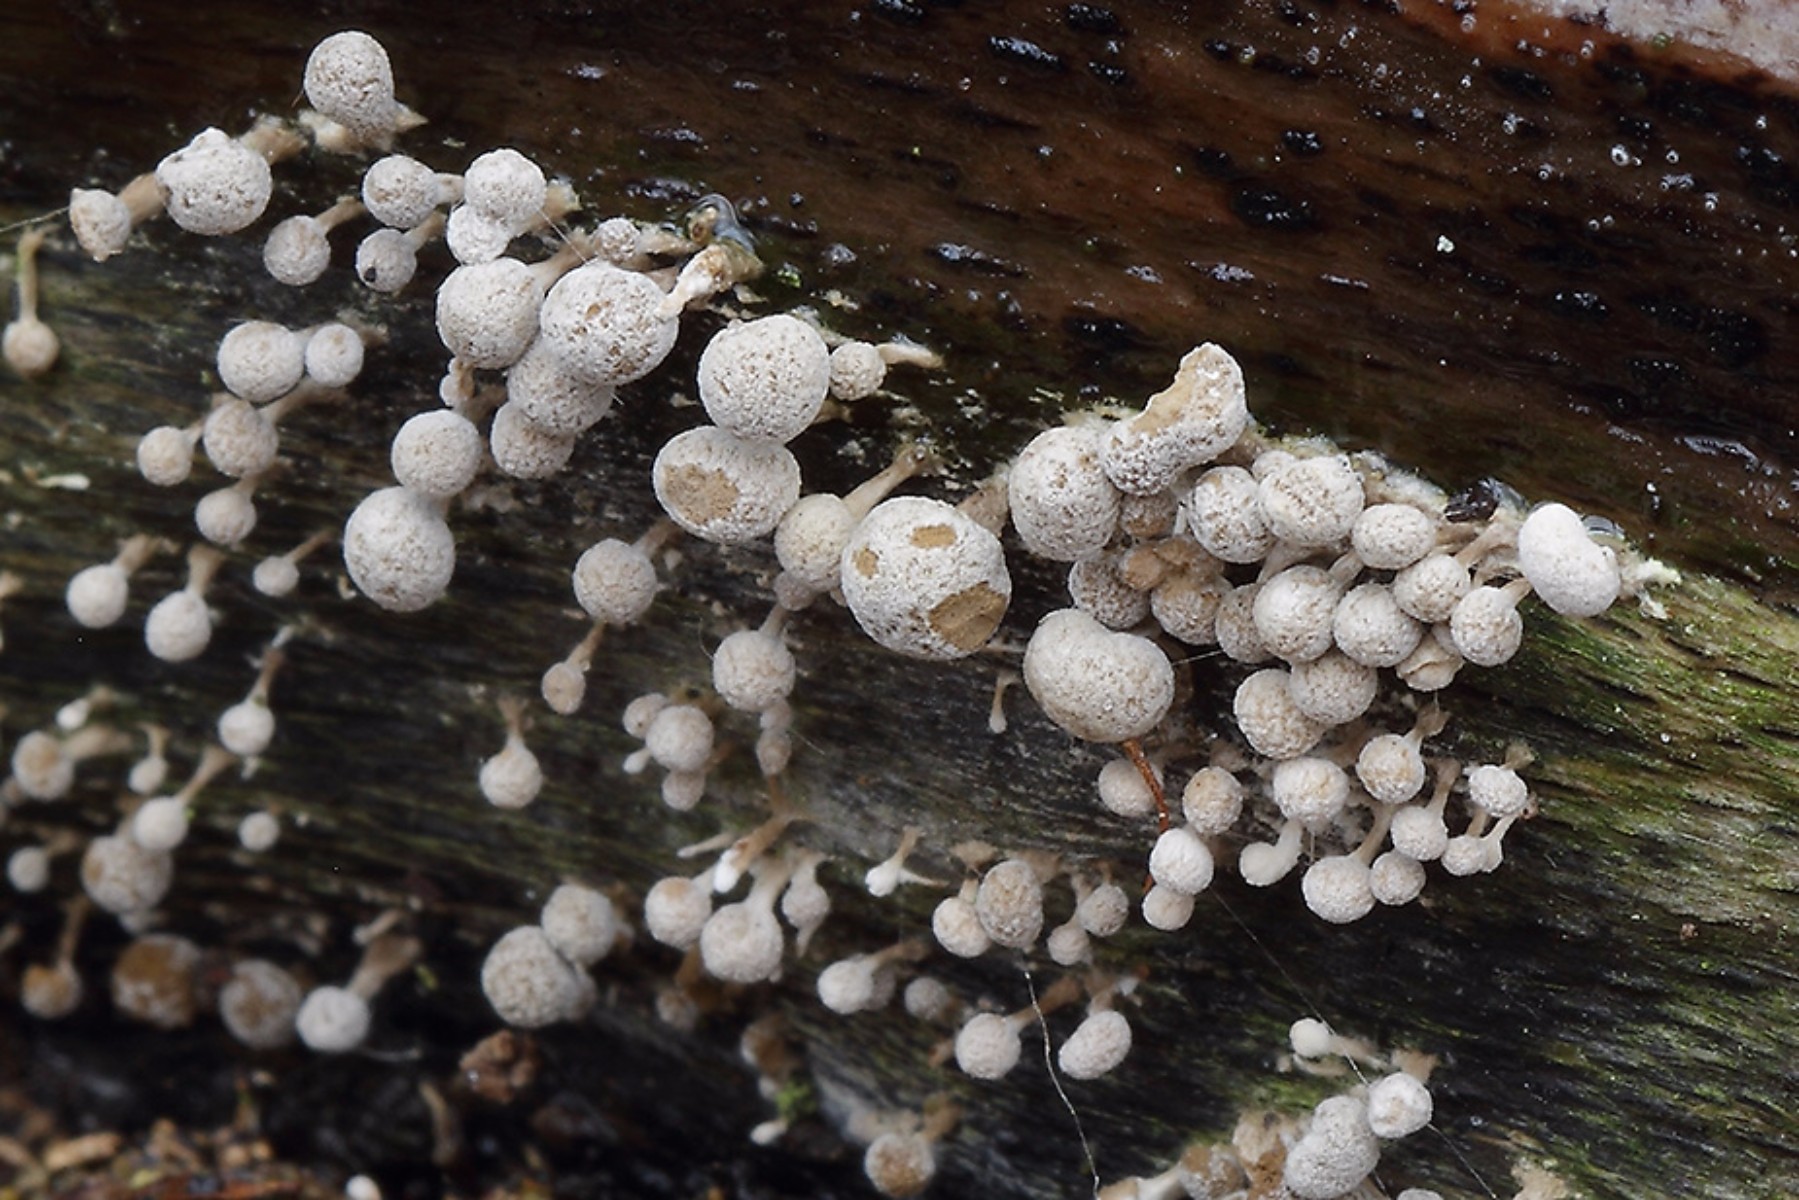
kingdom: Fungi
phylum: Basidiomycota
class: Atractiellomycetes
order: Atractiellales
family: Phleogenaceae
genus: Phleogena
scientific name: Phleogena faginea
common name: pudderkølle
